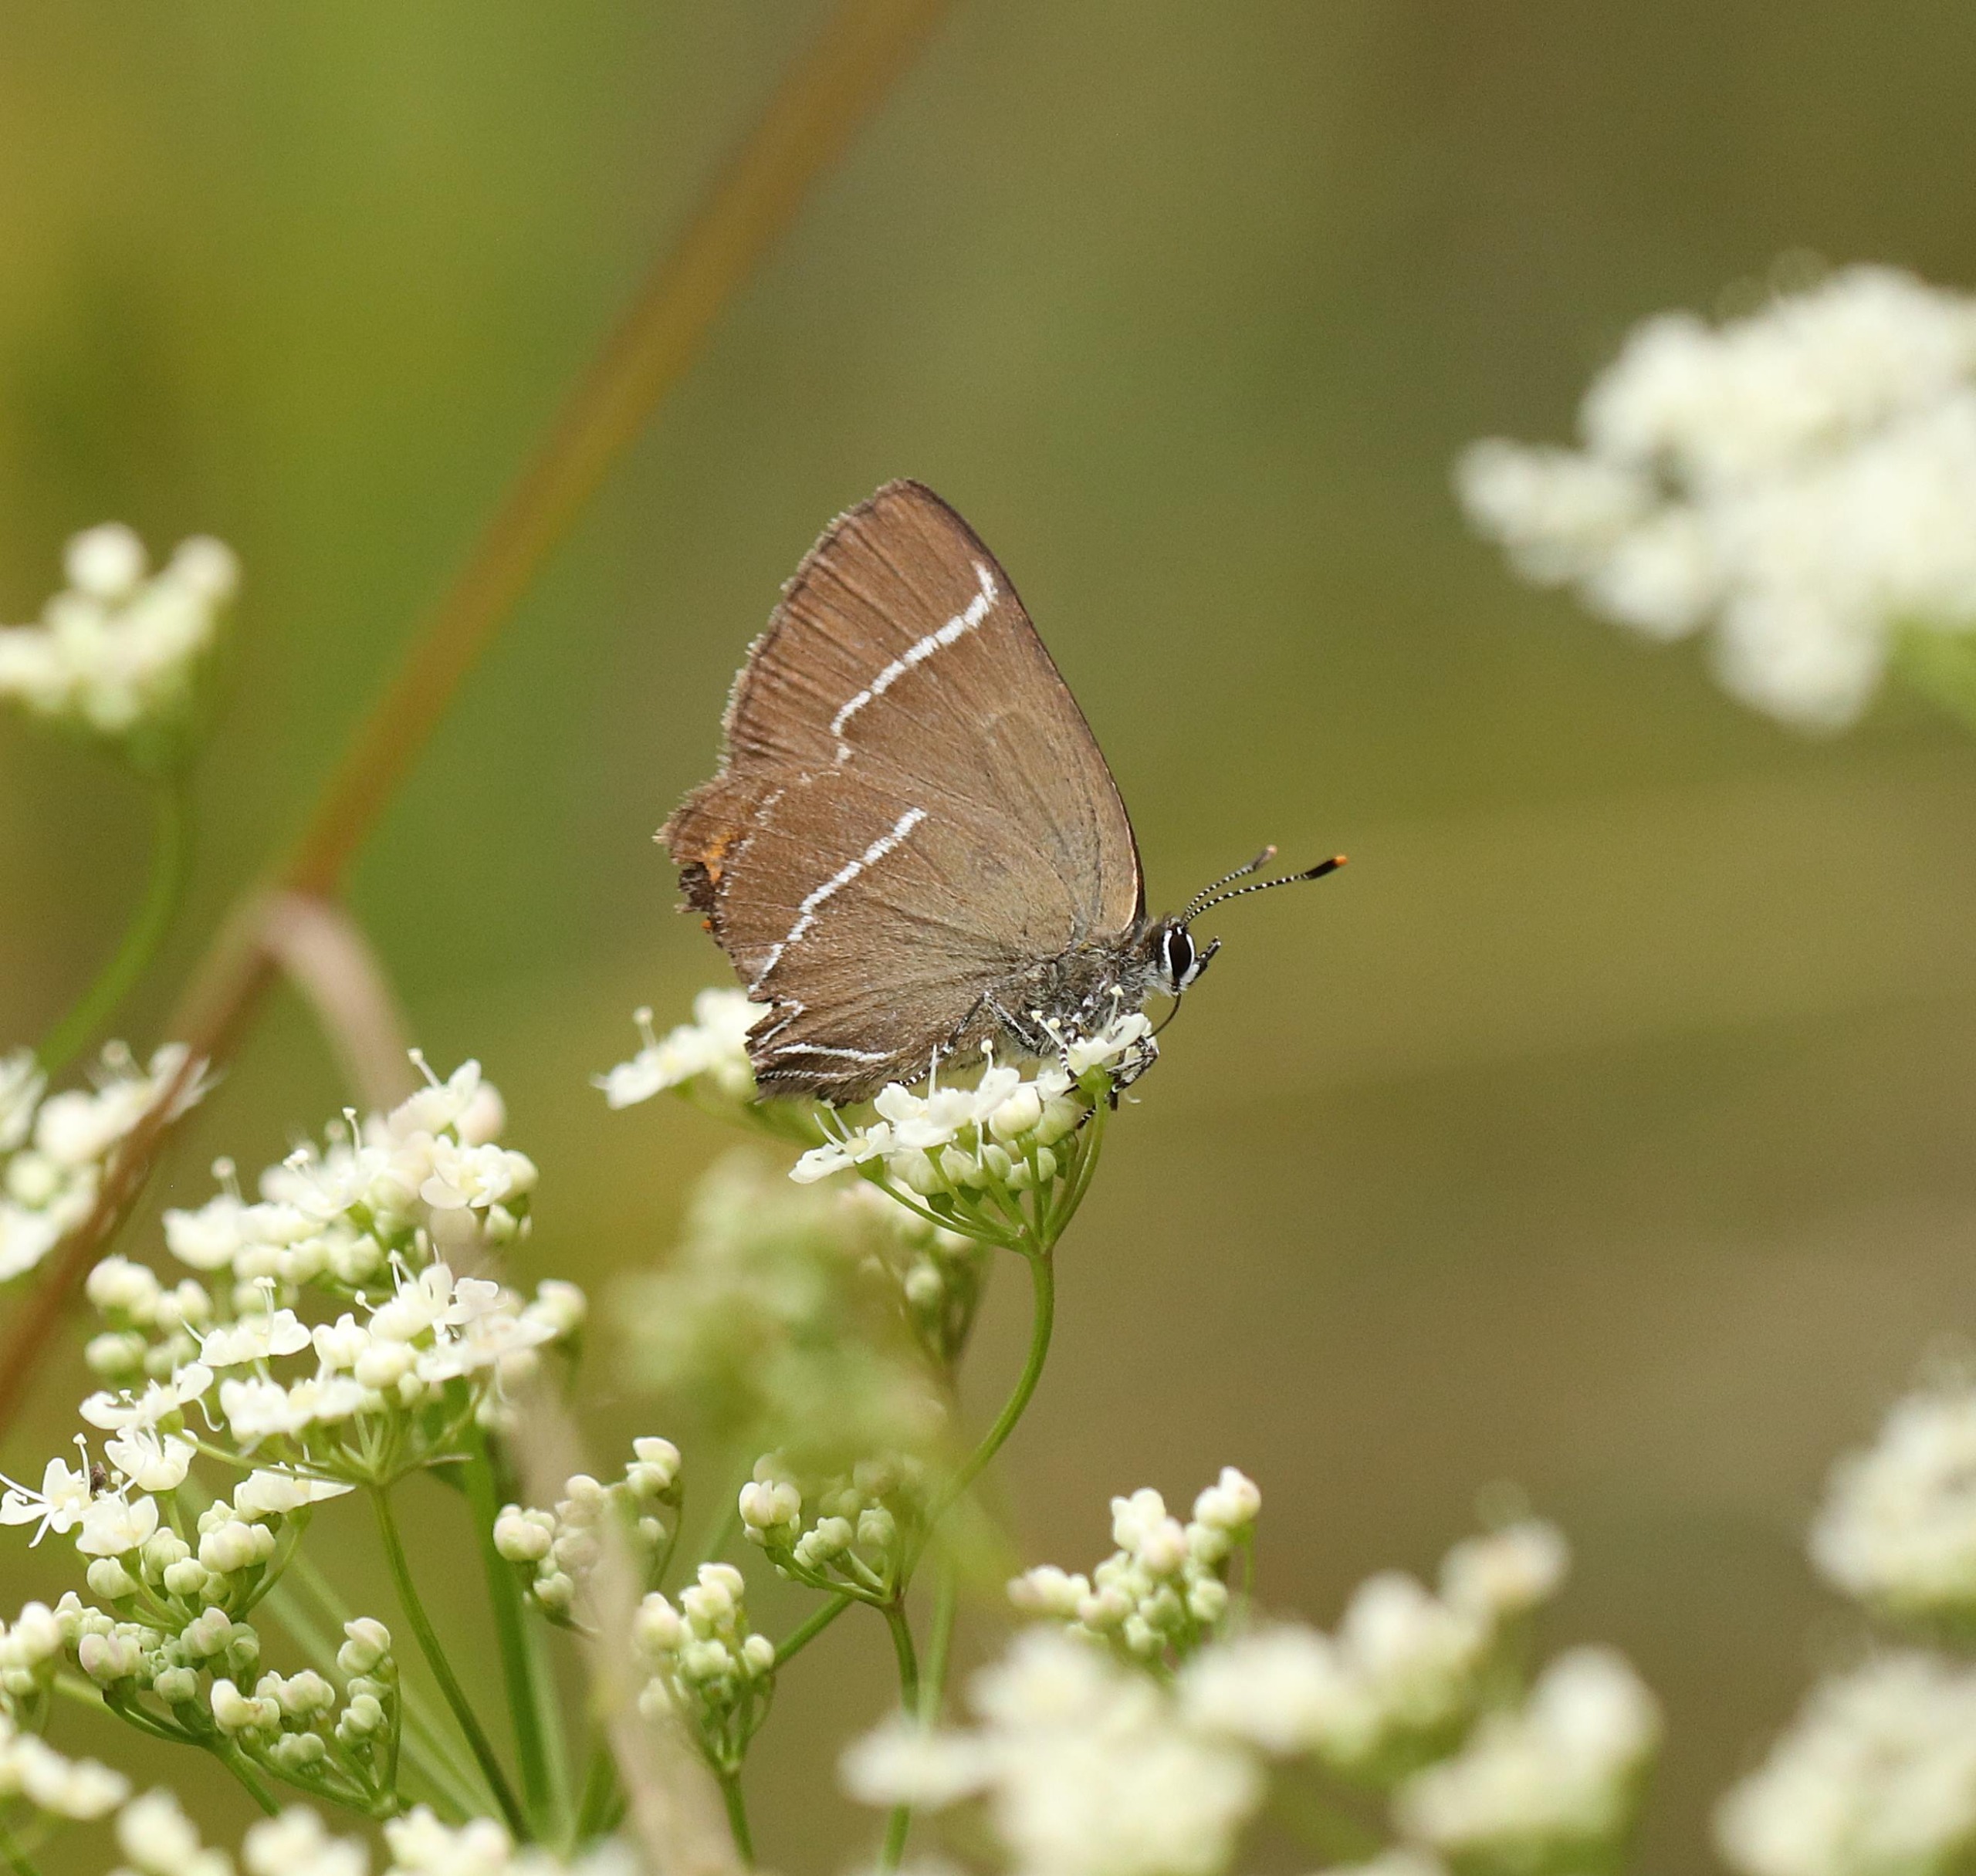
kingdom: Animalia
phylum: Arthropoda
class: Insecta
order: Lepidoptera
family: Lycaenidae
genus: Satyrium
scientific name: Satyrium w-album
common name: Det hvide W
